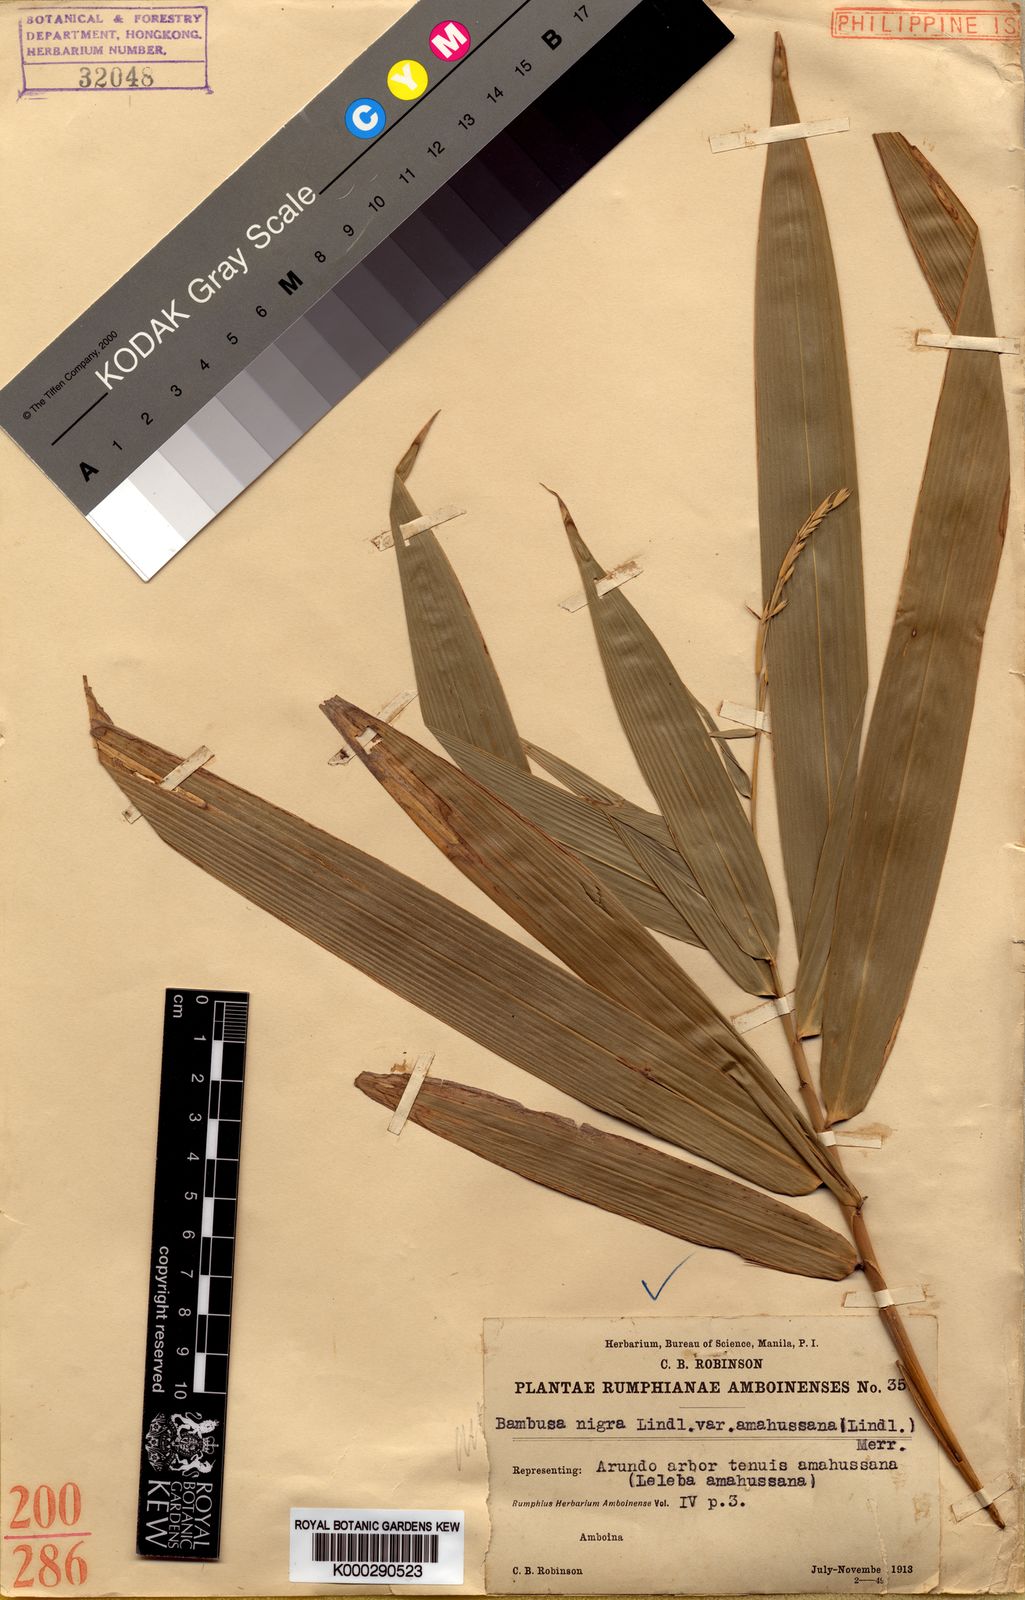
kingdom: Plantae
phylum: Tracheophyta
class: Liliopsida
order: Poales
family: Poaceae
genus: Neololeba
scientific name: Neololeba amahussana
